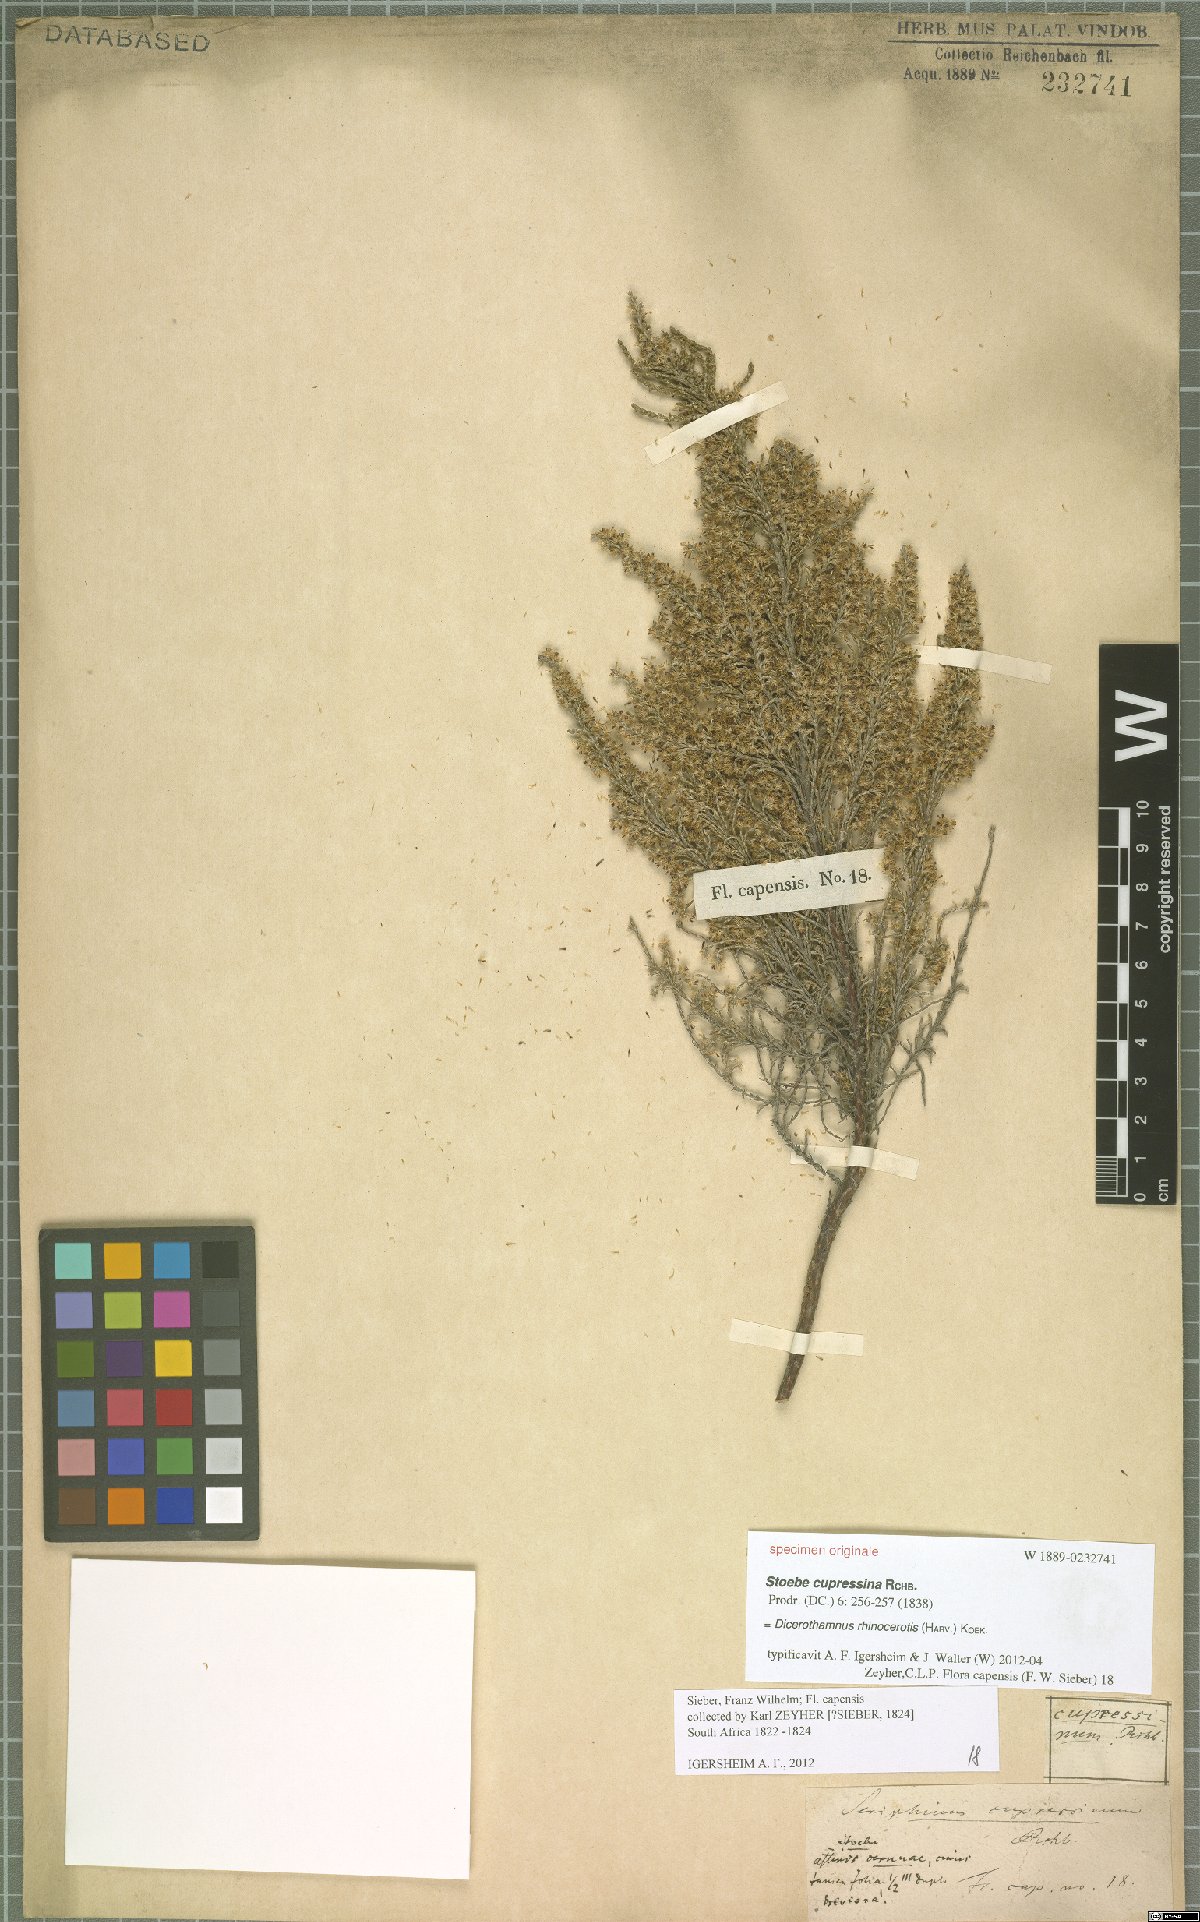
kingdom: Plantae
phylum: Tracheophyta
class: Magnoliopsida
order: Asterales
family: Asteraceae
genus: Dicerothamnus
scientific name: Dicerothamnus rhinocerotis
